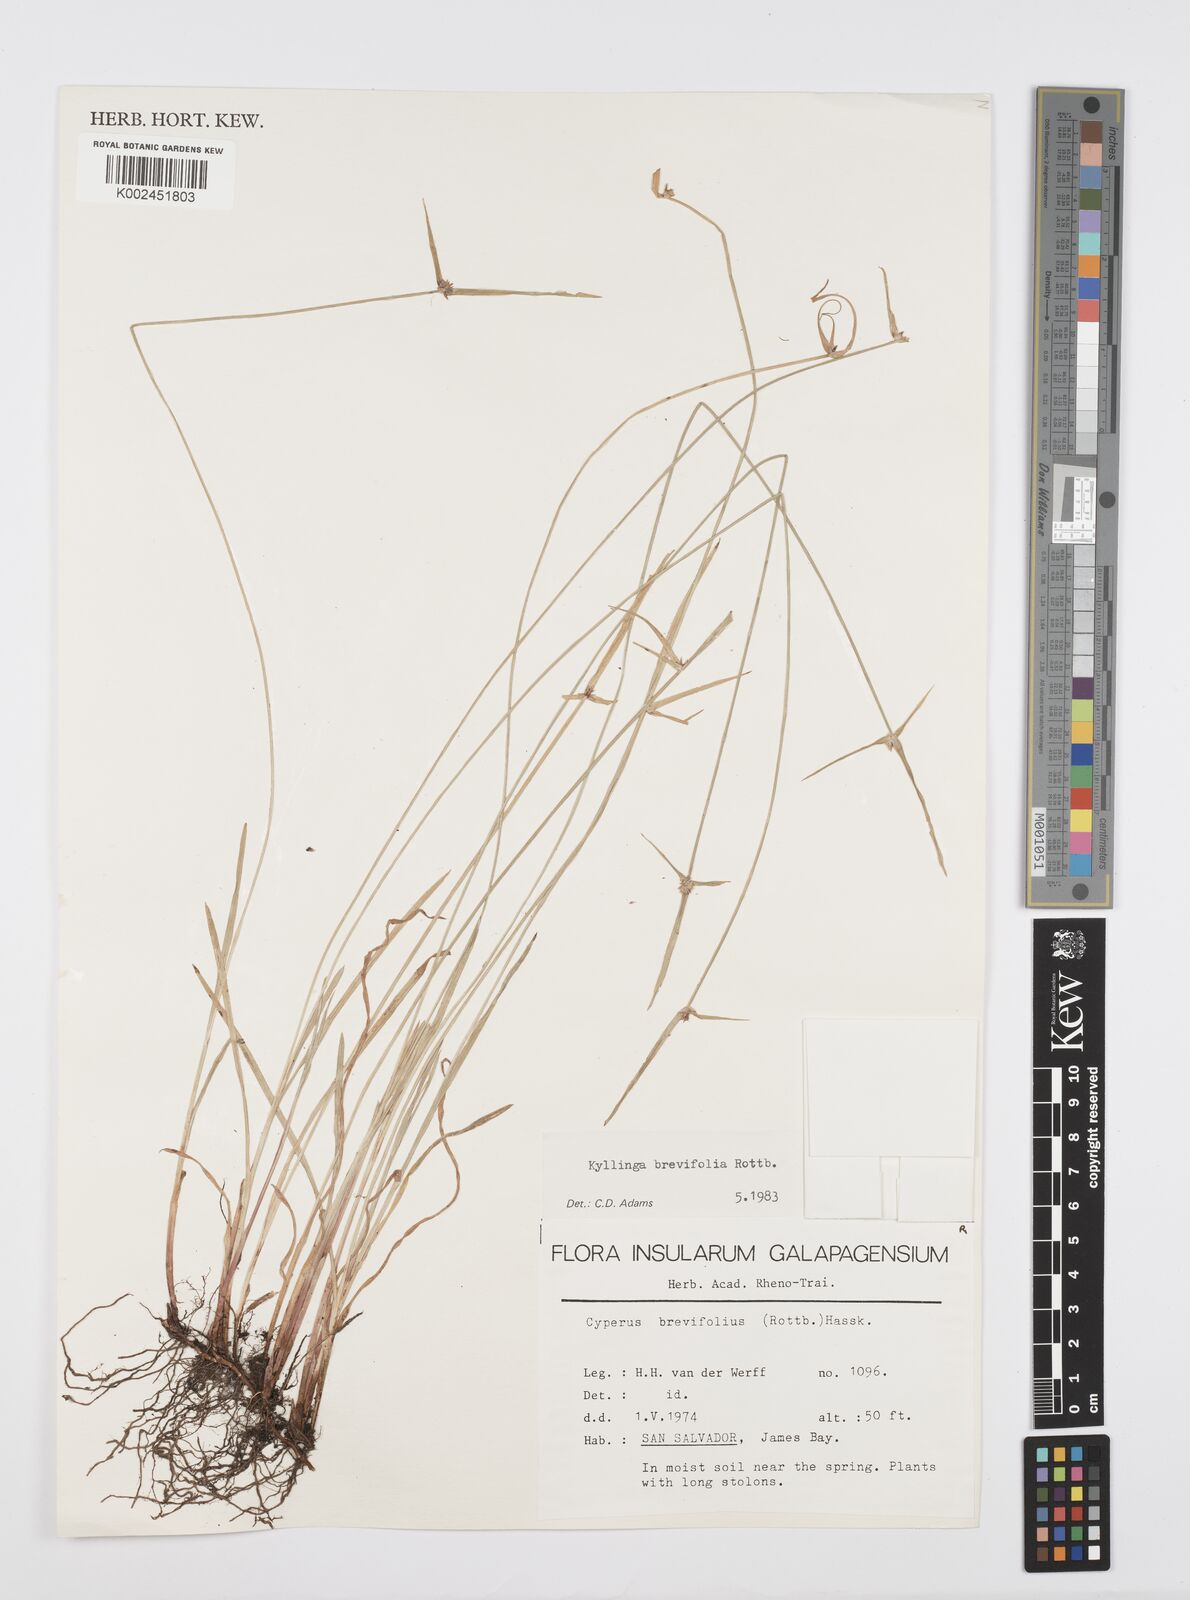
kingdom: Plantae
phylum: Tracheophyta
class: Liliopsida
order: Poales
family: Cyperaceae
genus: Cyperus
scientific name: Cyperus brevifolius
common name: Globe kyllinga
